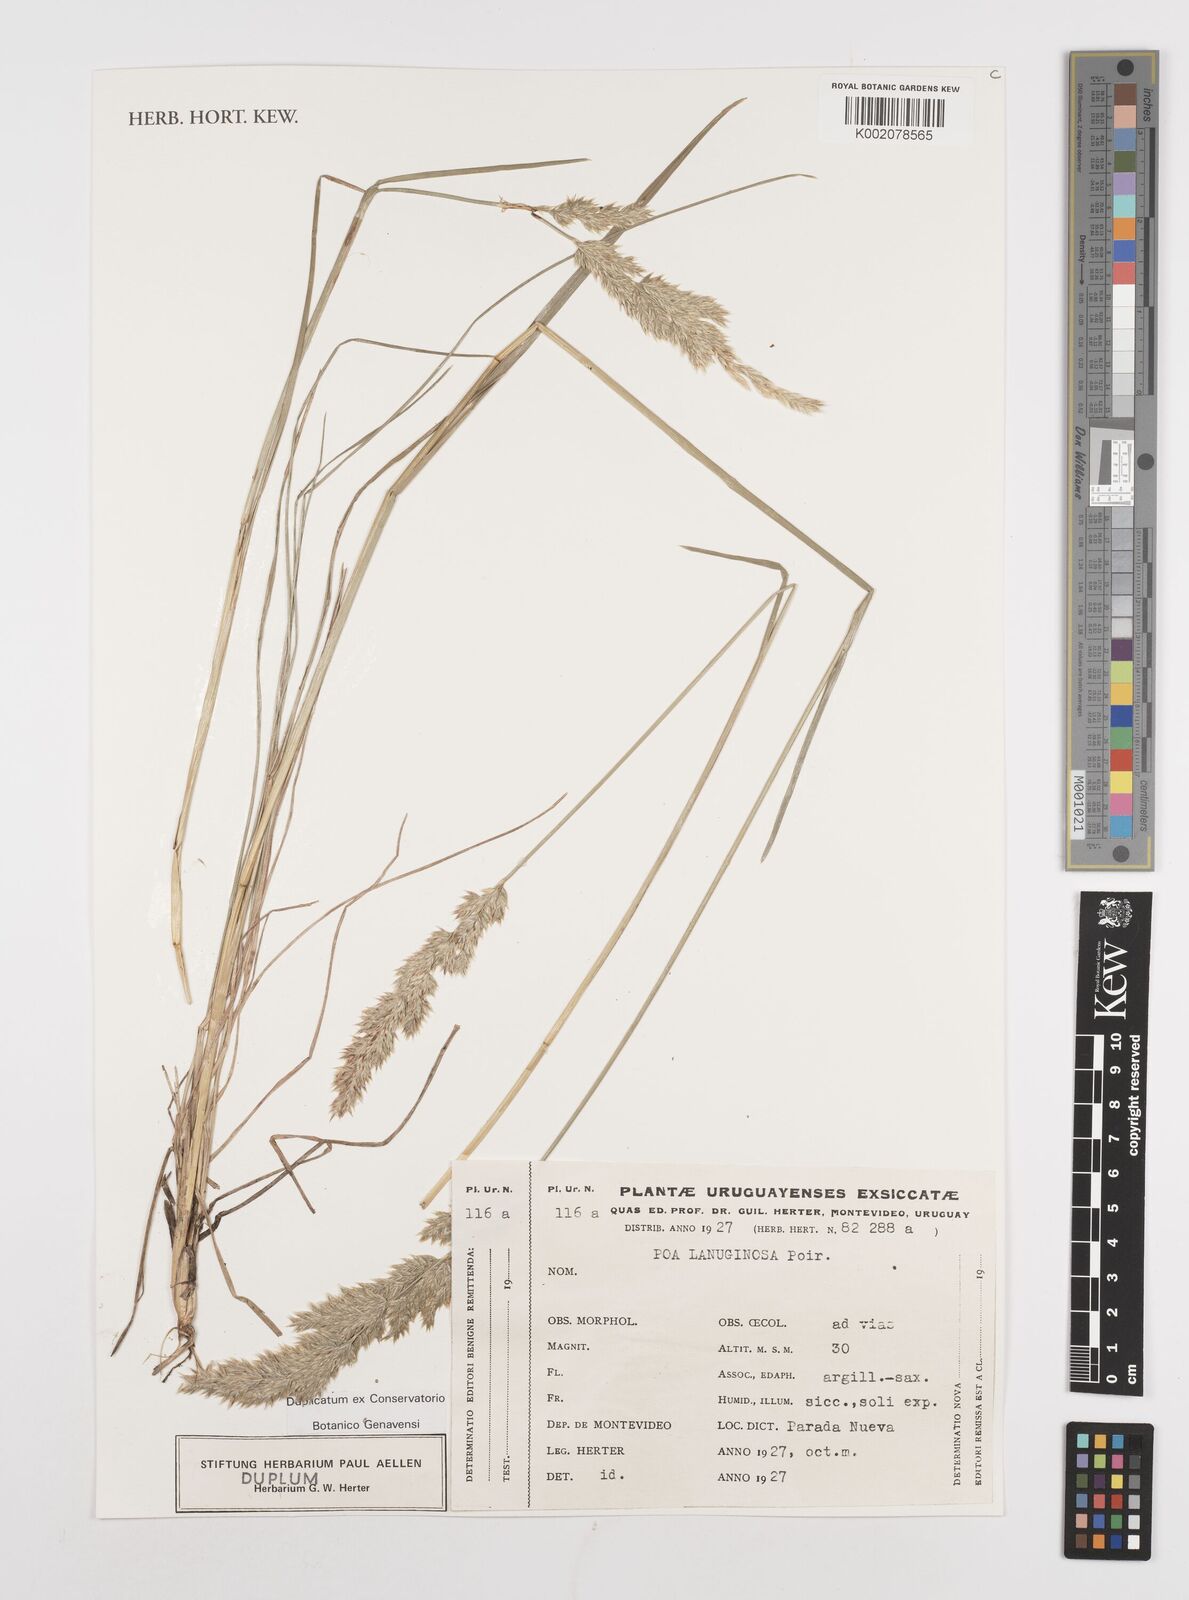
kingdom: Plantae
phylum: Tracheophyta
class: Liliopsida
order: Poales
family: Poaceae
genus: Poa
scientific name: Poa lanuginosa
